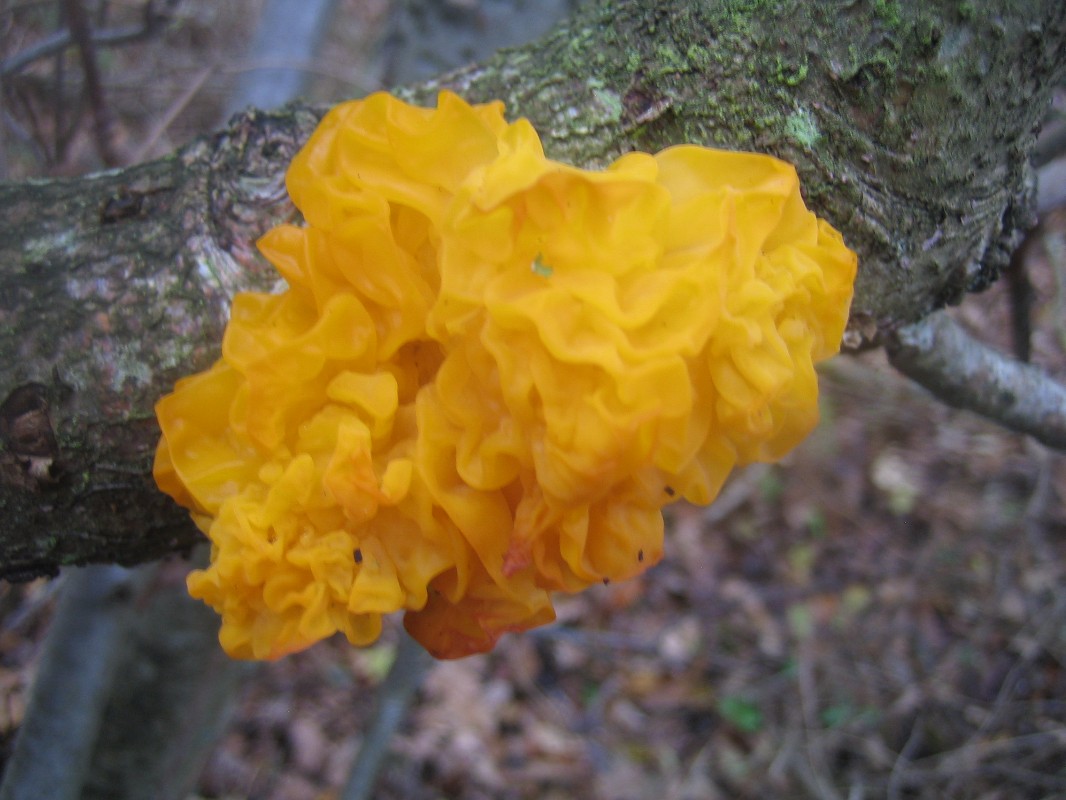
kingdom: Fungi
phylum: Basidiomycota
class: Tremellomycetes
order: Tremellales
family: Tremellaceae
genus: Tremella
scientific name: Tremella mesenterica
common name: gul bævresvamp
